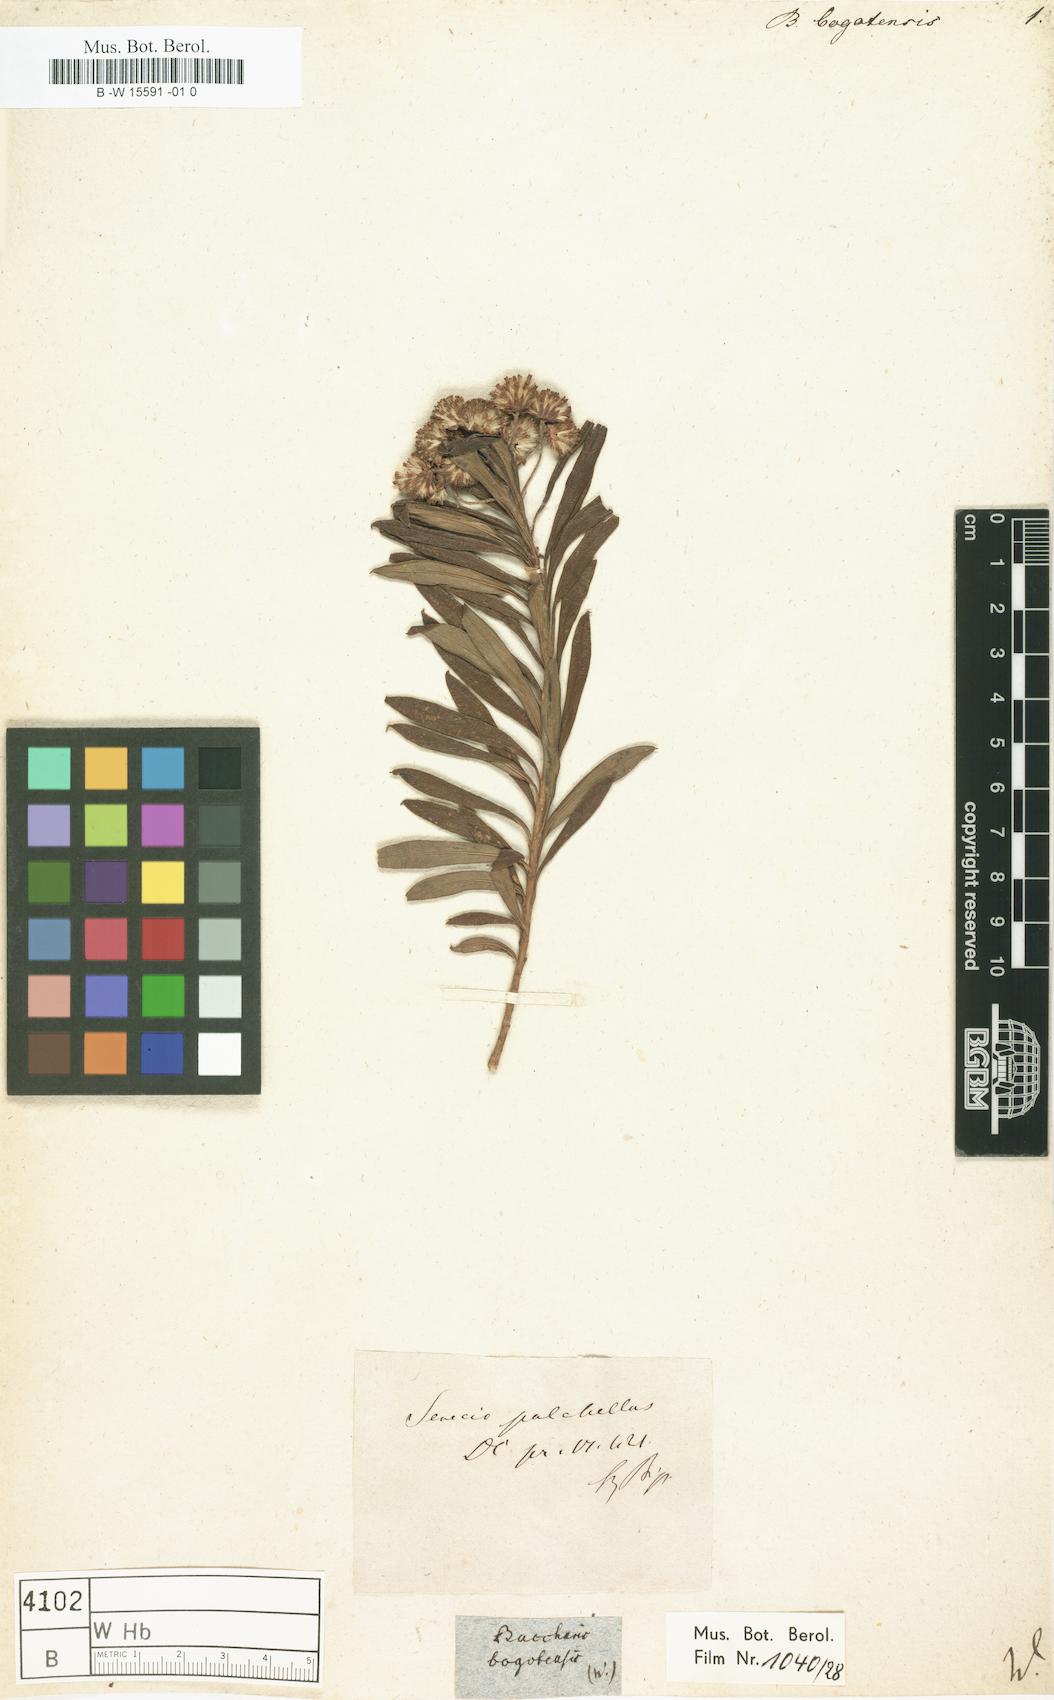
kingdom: Plantae
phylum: Tracheophyta
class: Magnoliopsida
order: Asterales
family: Asteraceae
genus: Baccharis
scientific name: Baccharis bogotensis
